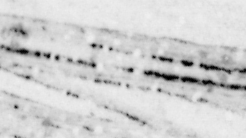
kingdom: Animalia
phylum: Chordata
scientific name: Chordata
